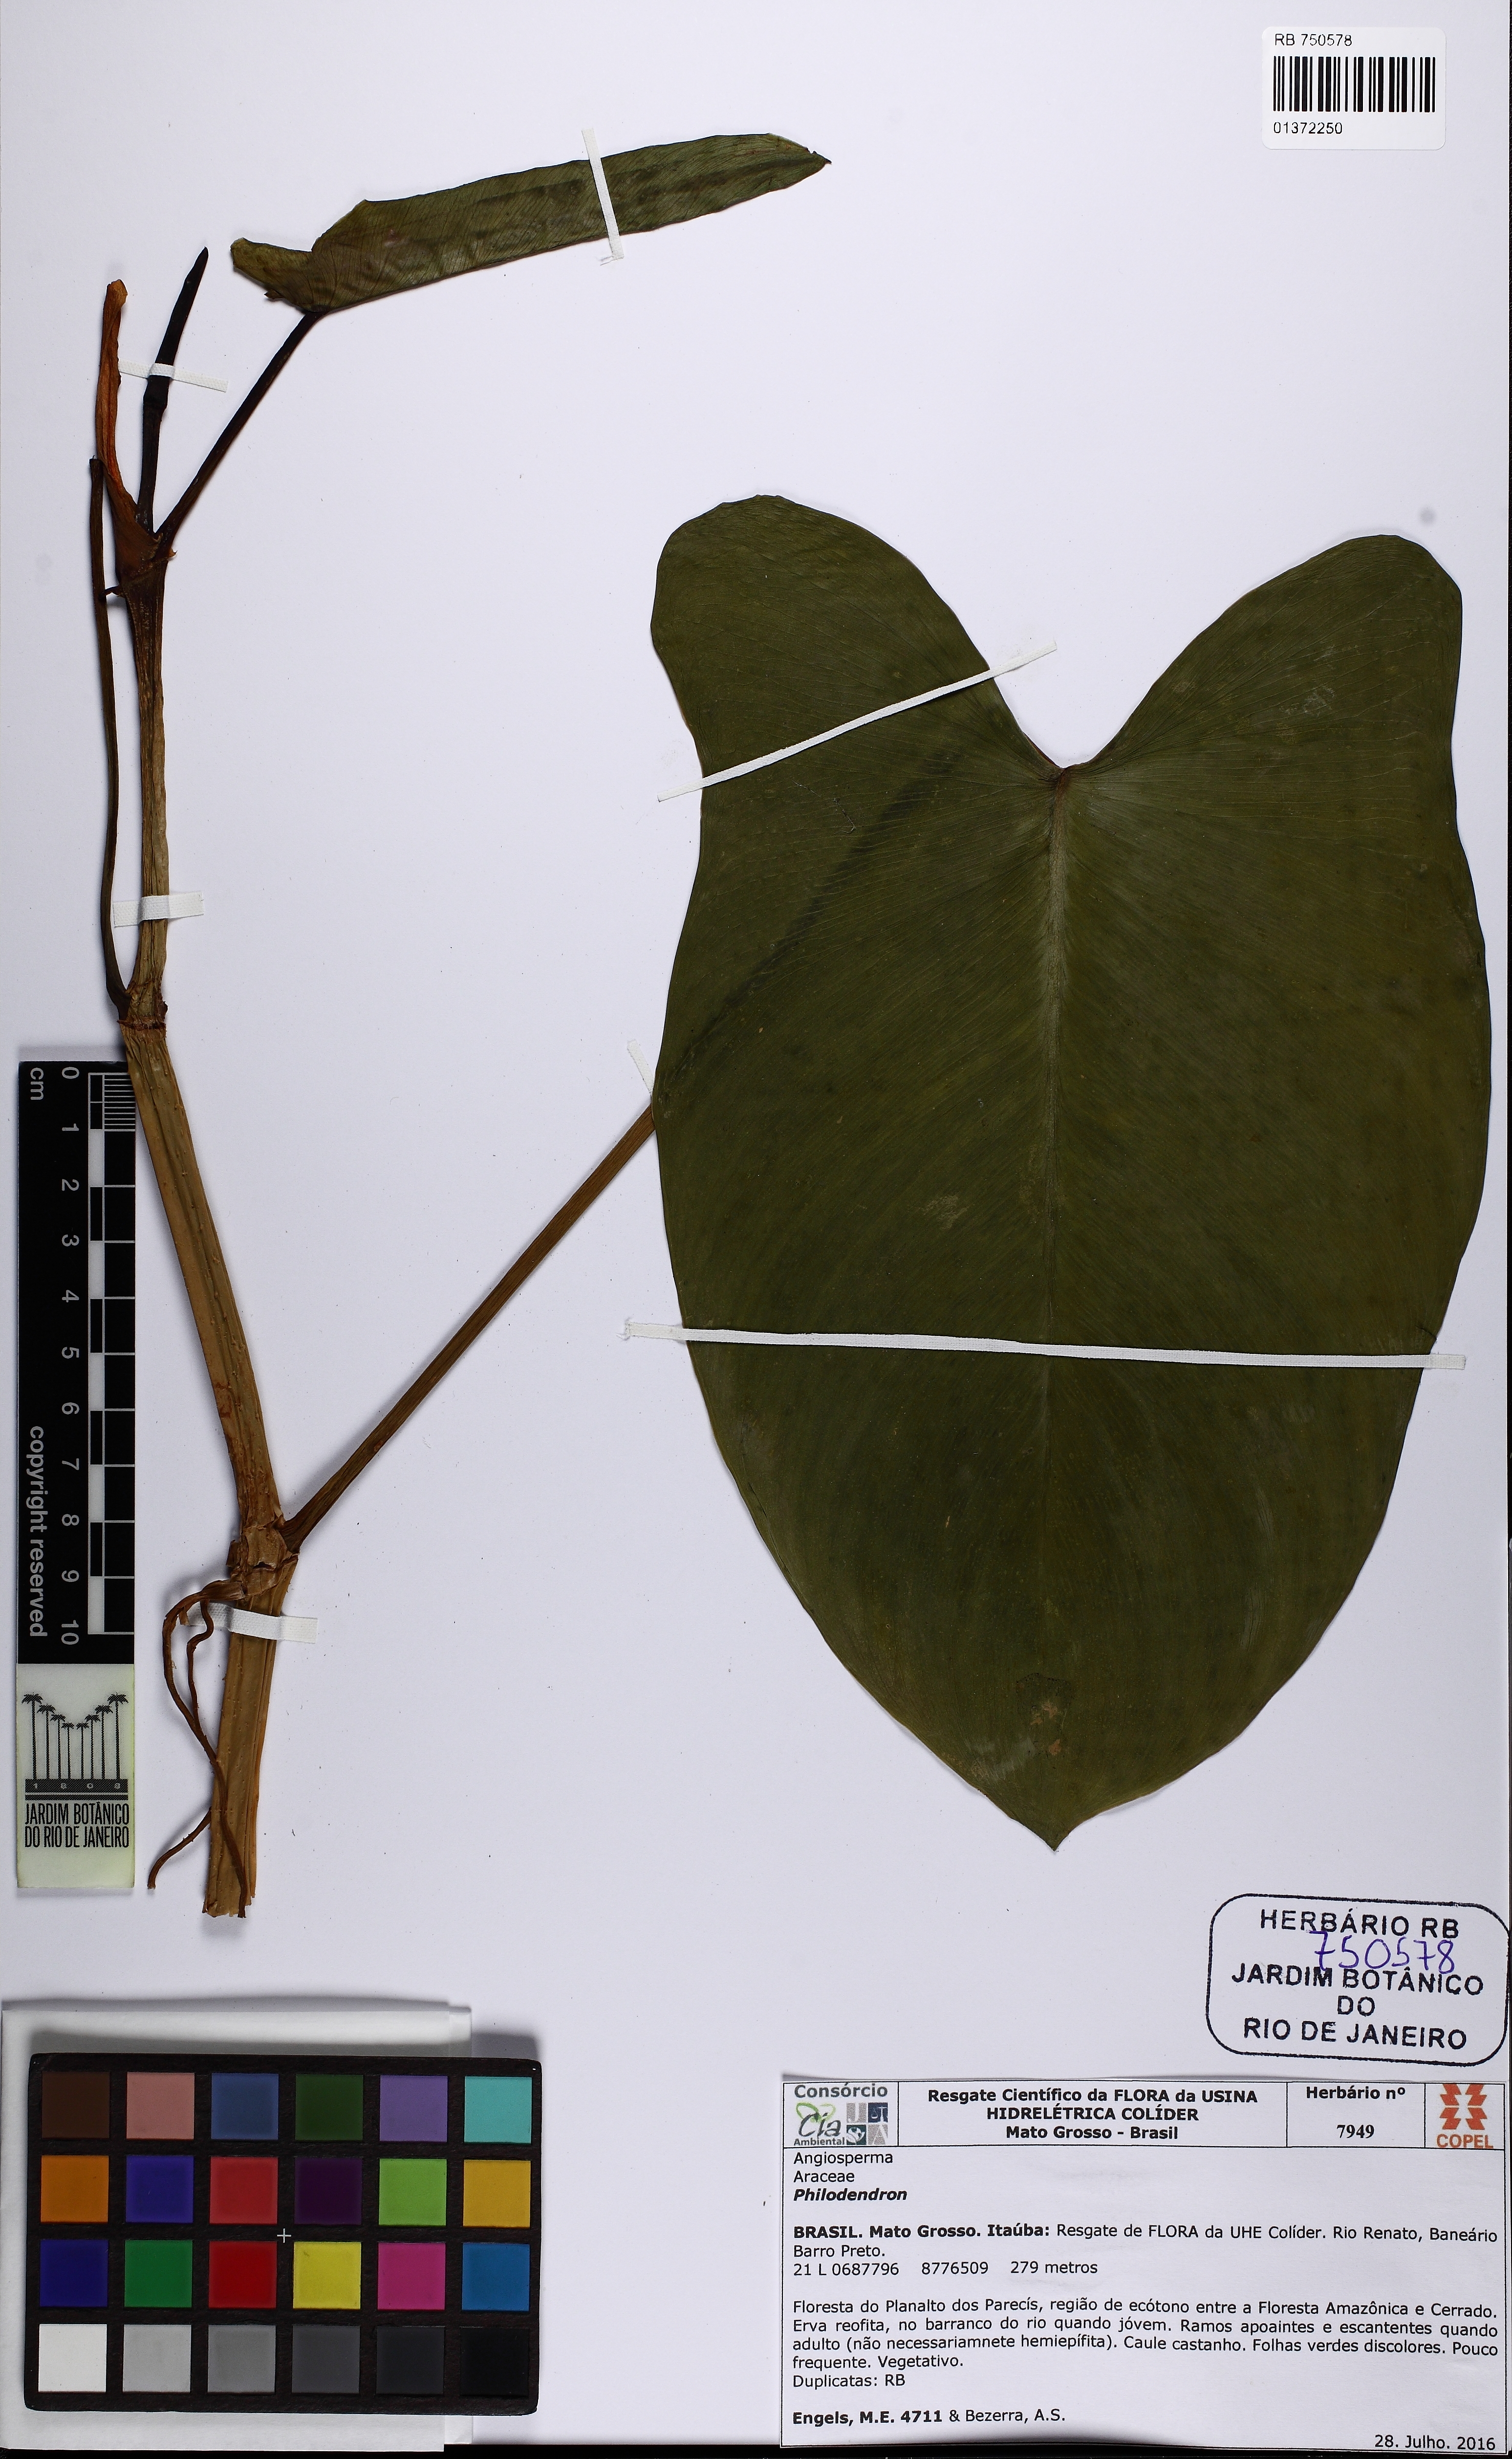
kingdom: Plantae
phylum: Tracheophyta
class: Liliopsida
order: Alismatales
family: Araceae
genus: Philodendron
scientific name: Philodendron muricatum
